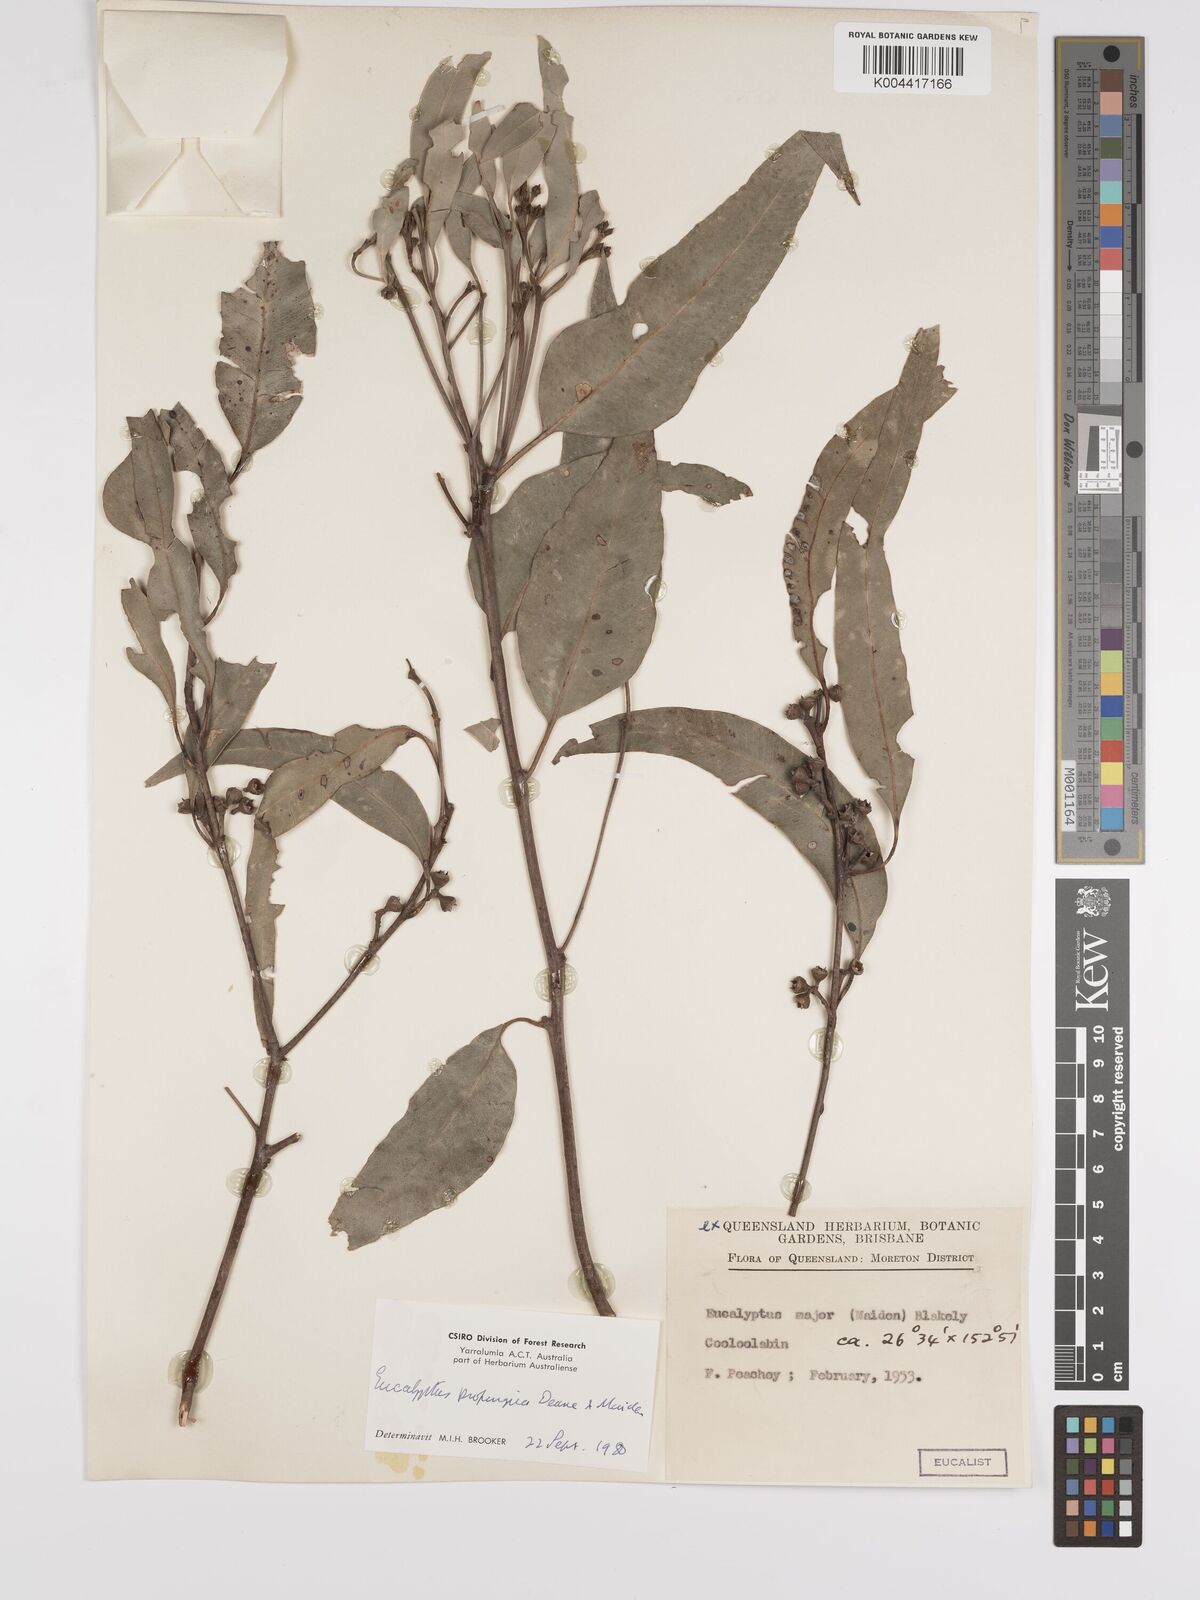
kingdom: Plantae
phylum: Tracheophyta
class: Magnoliopsida
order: Myrtales
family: Myrtaceae
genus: Eucalyptus
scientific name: Eucalyptus
